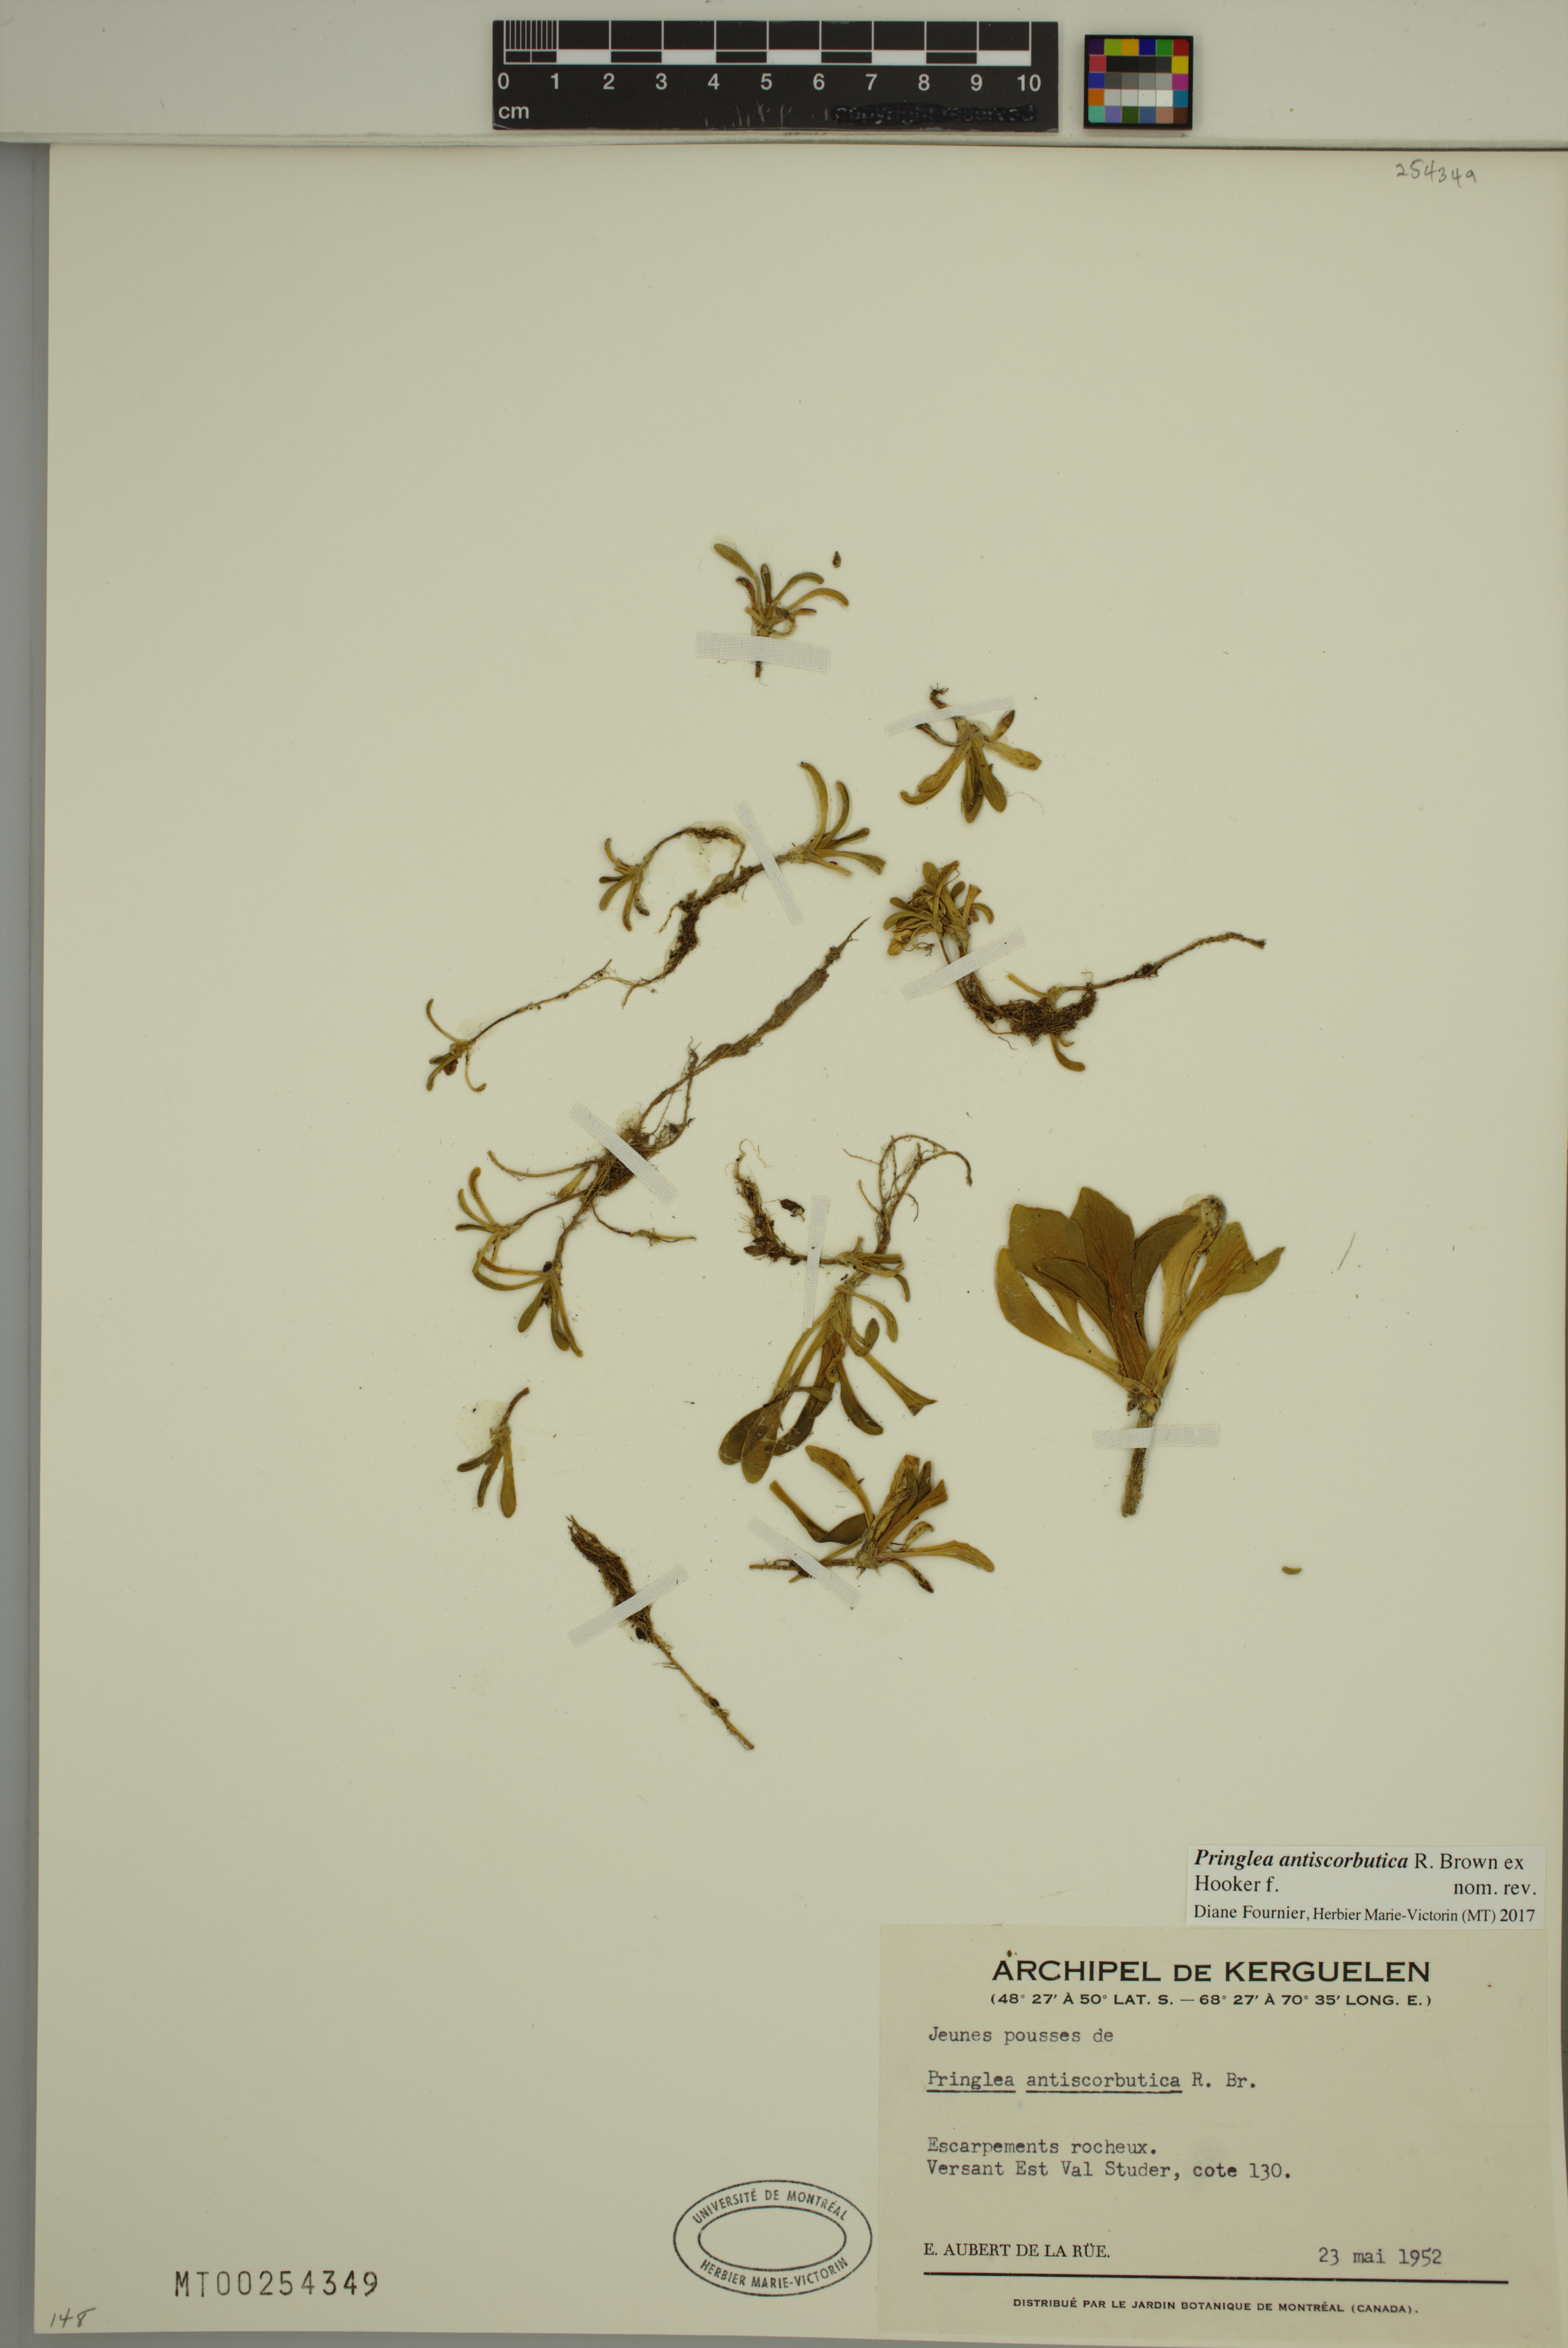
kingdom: Plantae
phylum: Tracheophyta
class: Magnoliopsida
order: Brassicales
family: Brassicaceae
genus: Pringlea
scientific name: Pringlea antiscorbutica
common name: Kerguelen-cabbage
